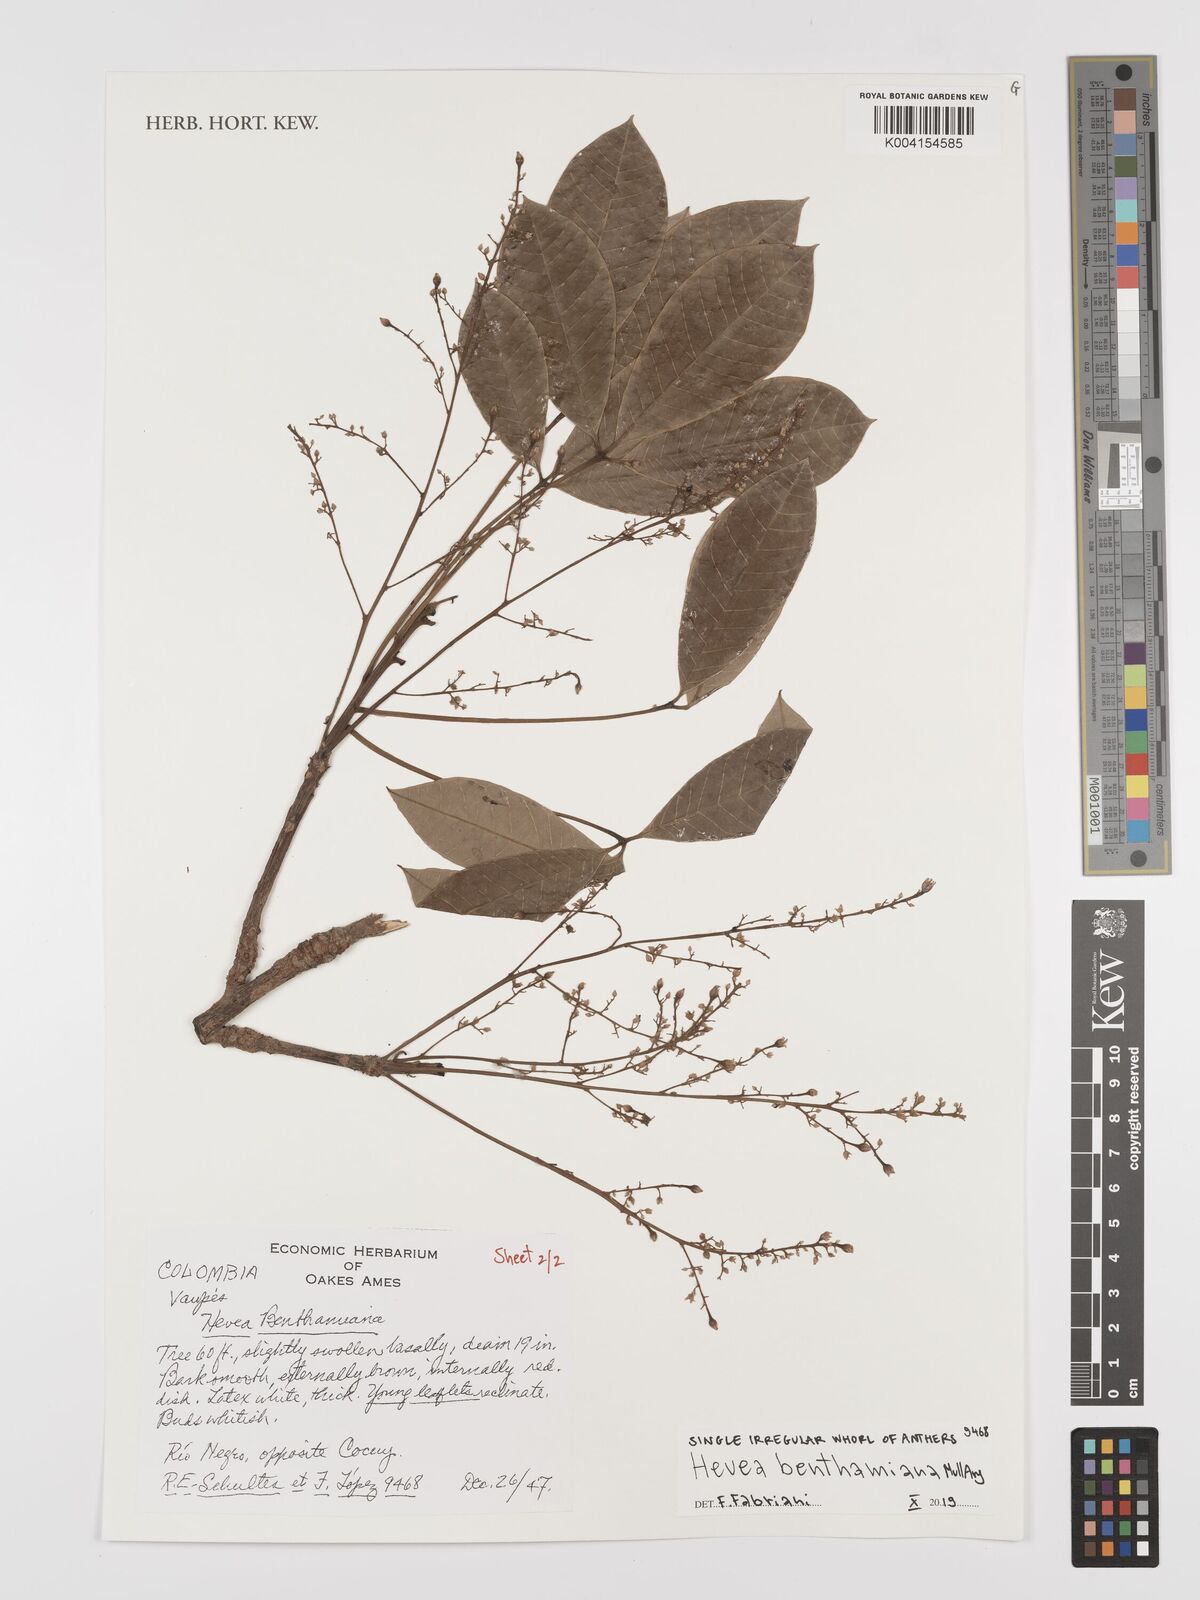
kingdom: Plantae
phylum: Tracheophyta
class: Magnoliopsida
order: Malpighiales
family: Euphorbiaceae
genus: Hevea
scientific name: Hevea benthamiana
